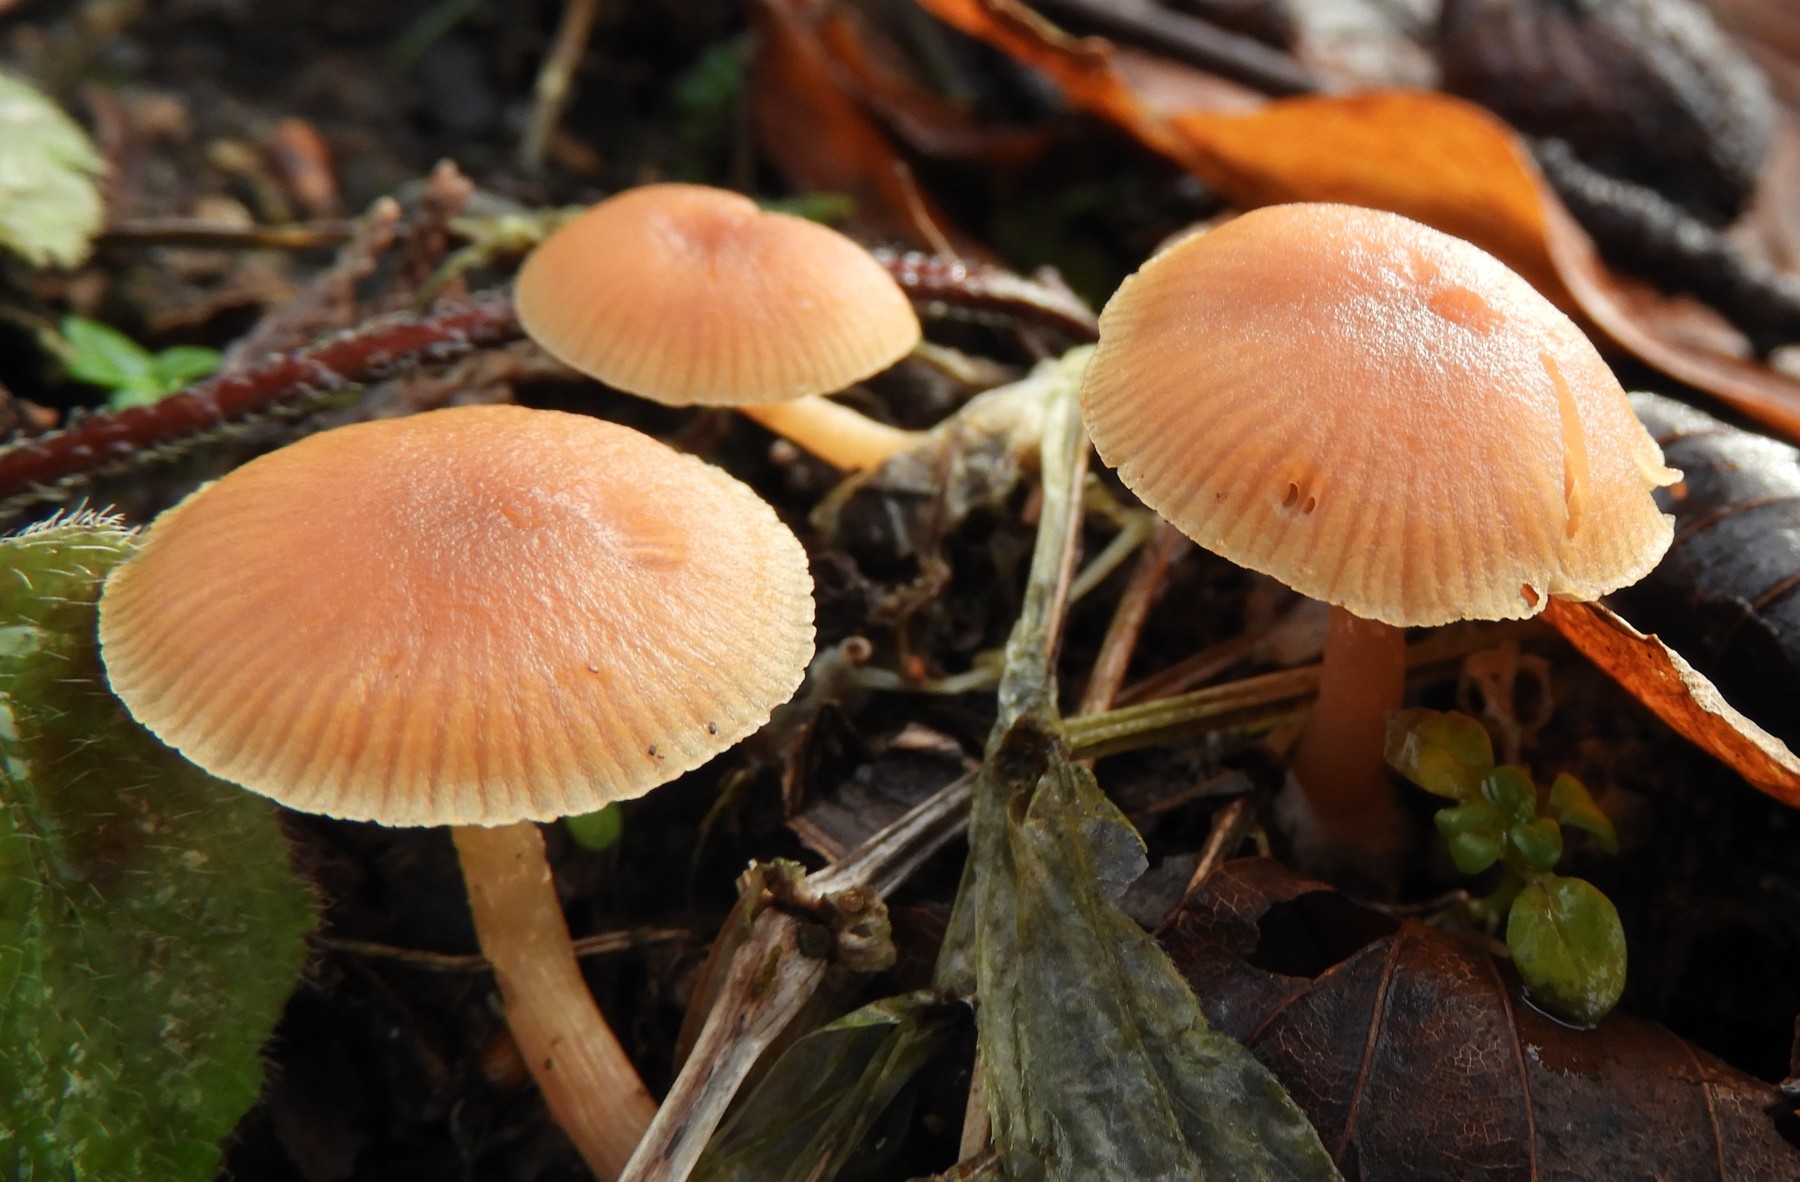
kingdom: Fungi
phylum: Basidiomycota
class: Agaricomycetes
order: Agaricales
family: Tubariaceae
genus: Tubaria
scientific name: Tubaria furfuracea
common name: kliddet fnughat
